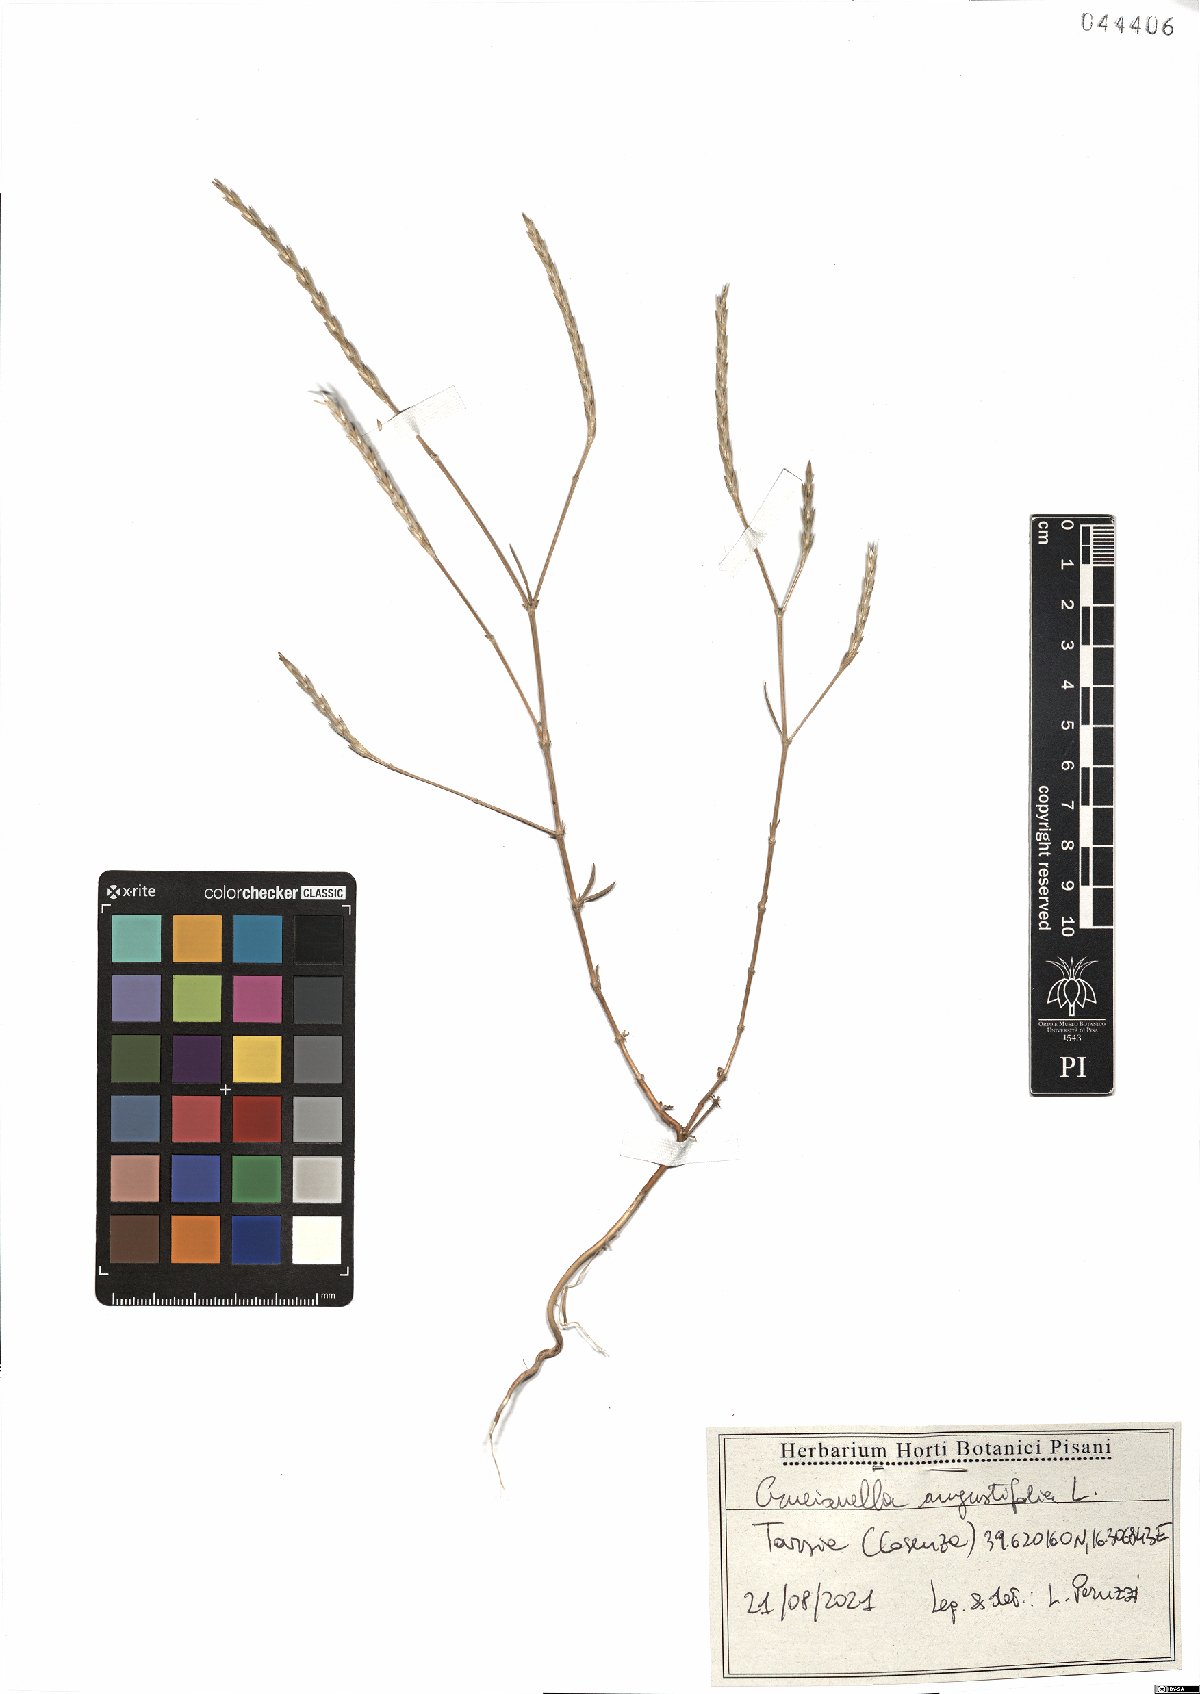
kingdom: Plantae
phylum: Tracheophyta
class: Magnoliopsida
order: Gentianales
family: Rubiaceae
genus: Crucianella
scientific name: Crucianella angustifolia
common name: Narrowleaf crucianella
